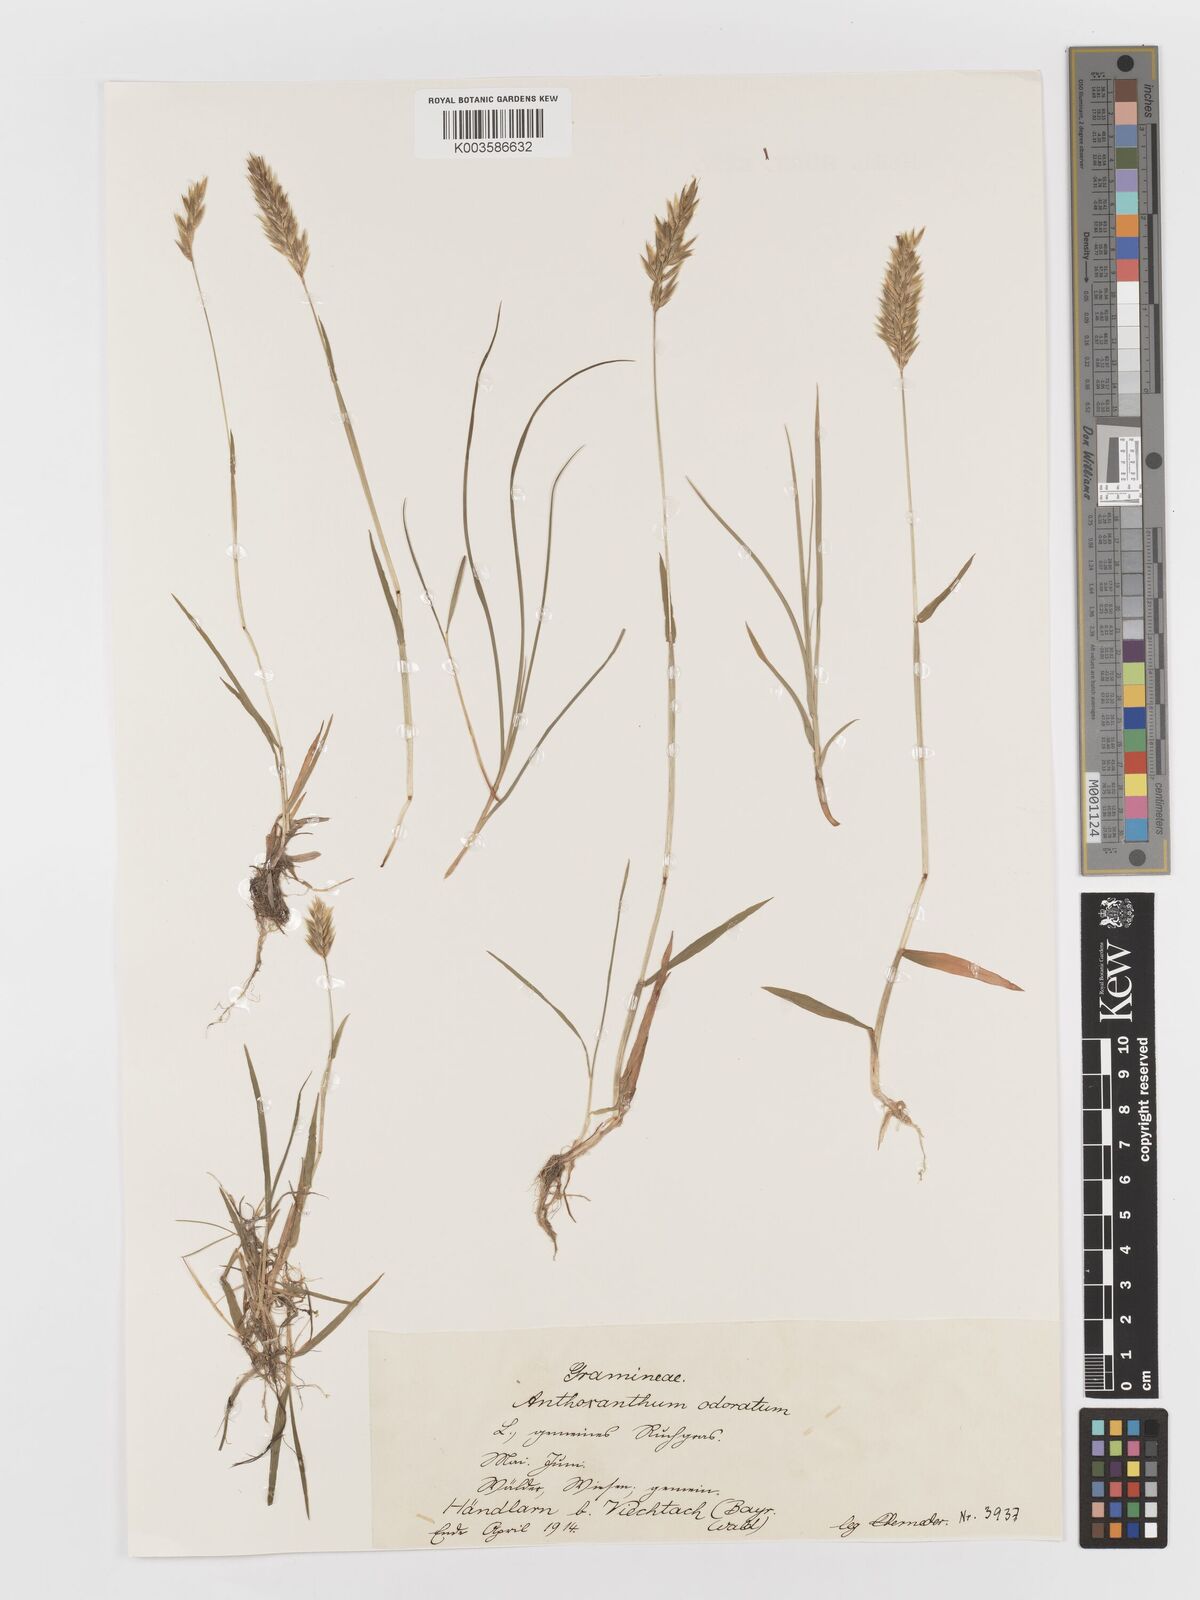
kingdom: Plantae
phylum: Tracheophyta
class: Liliopsida
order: Poales
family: Poaceae
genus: Anthoxanthum
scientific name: Anthoxanthum odoratum
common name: Sweet vernalgrass
